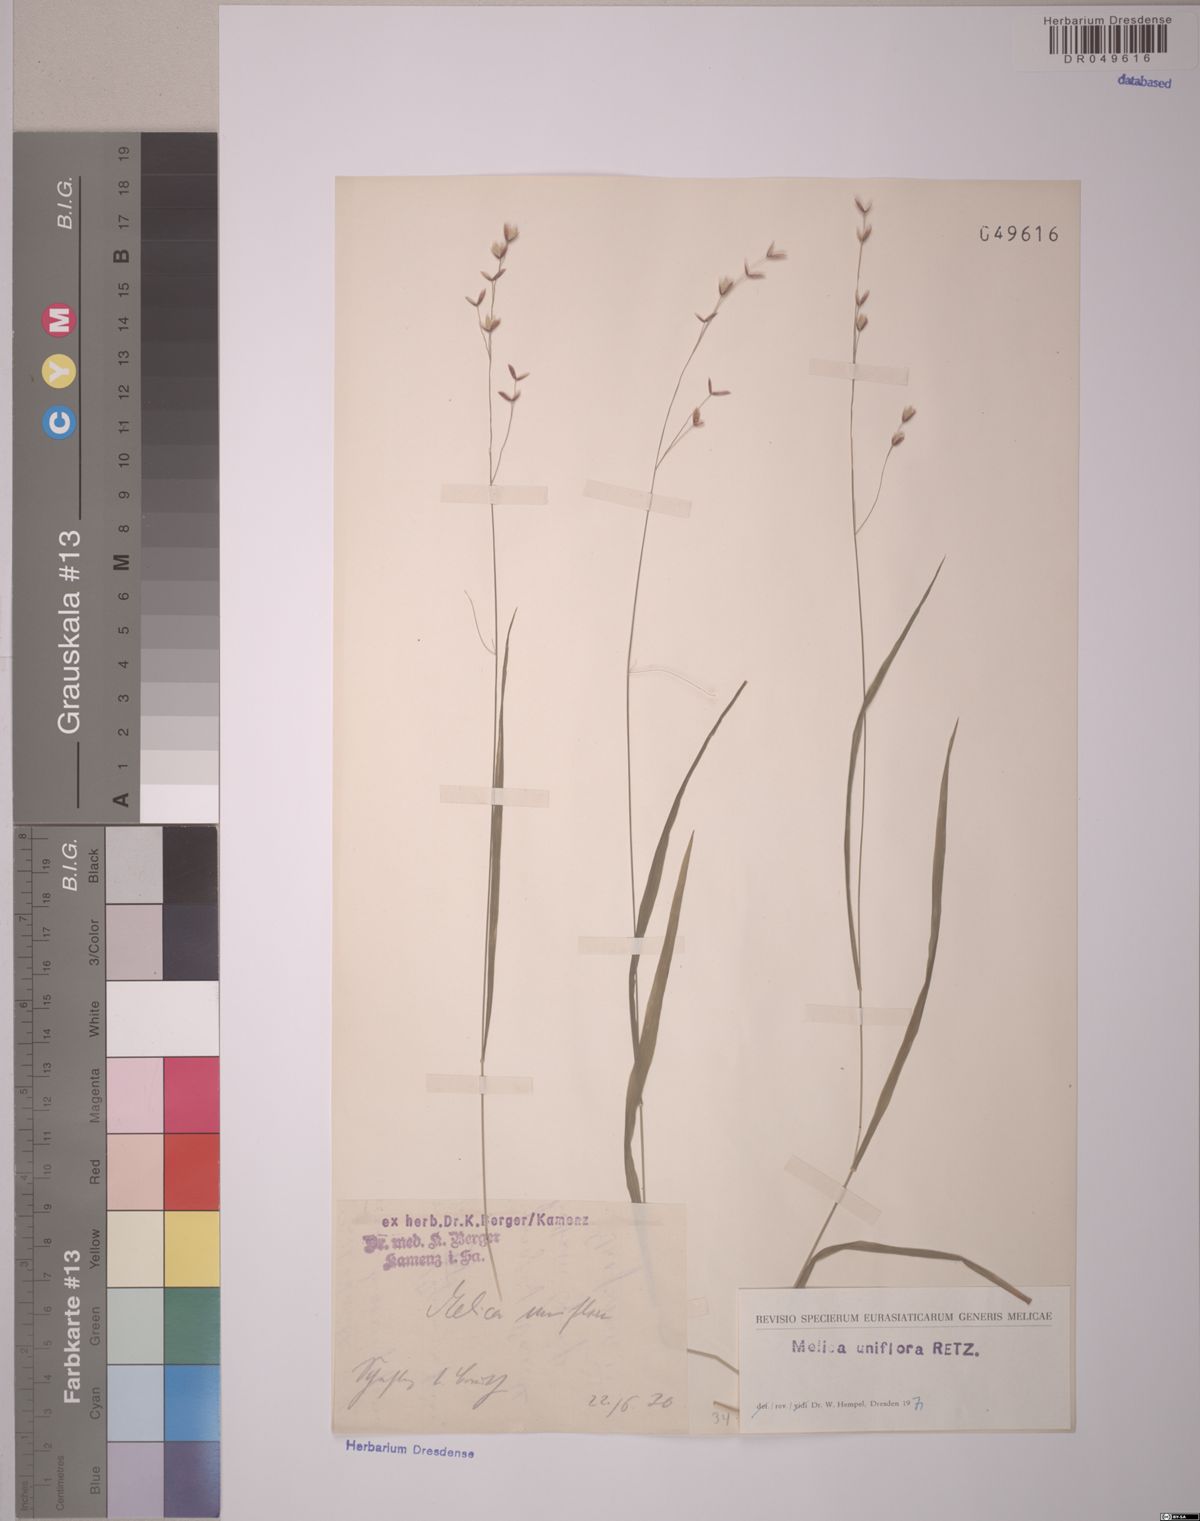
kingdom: Plantae
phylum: Tracheophyta
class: Liliopsida
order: Poales
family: Poaceae
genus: Melica
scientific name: Melica uniflora
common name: Wood melick
